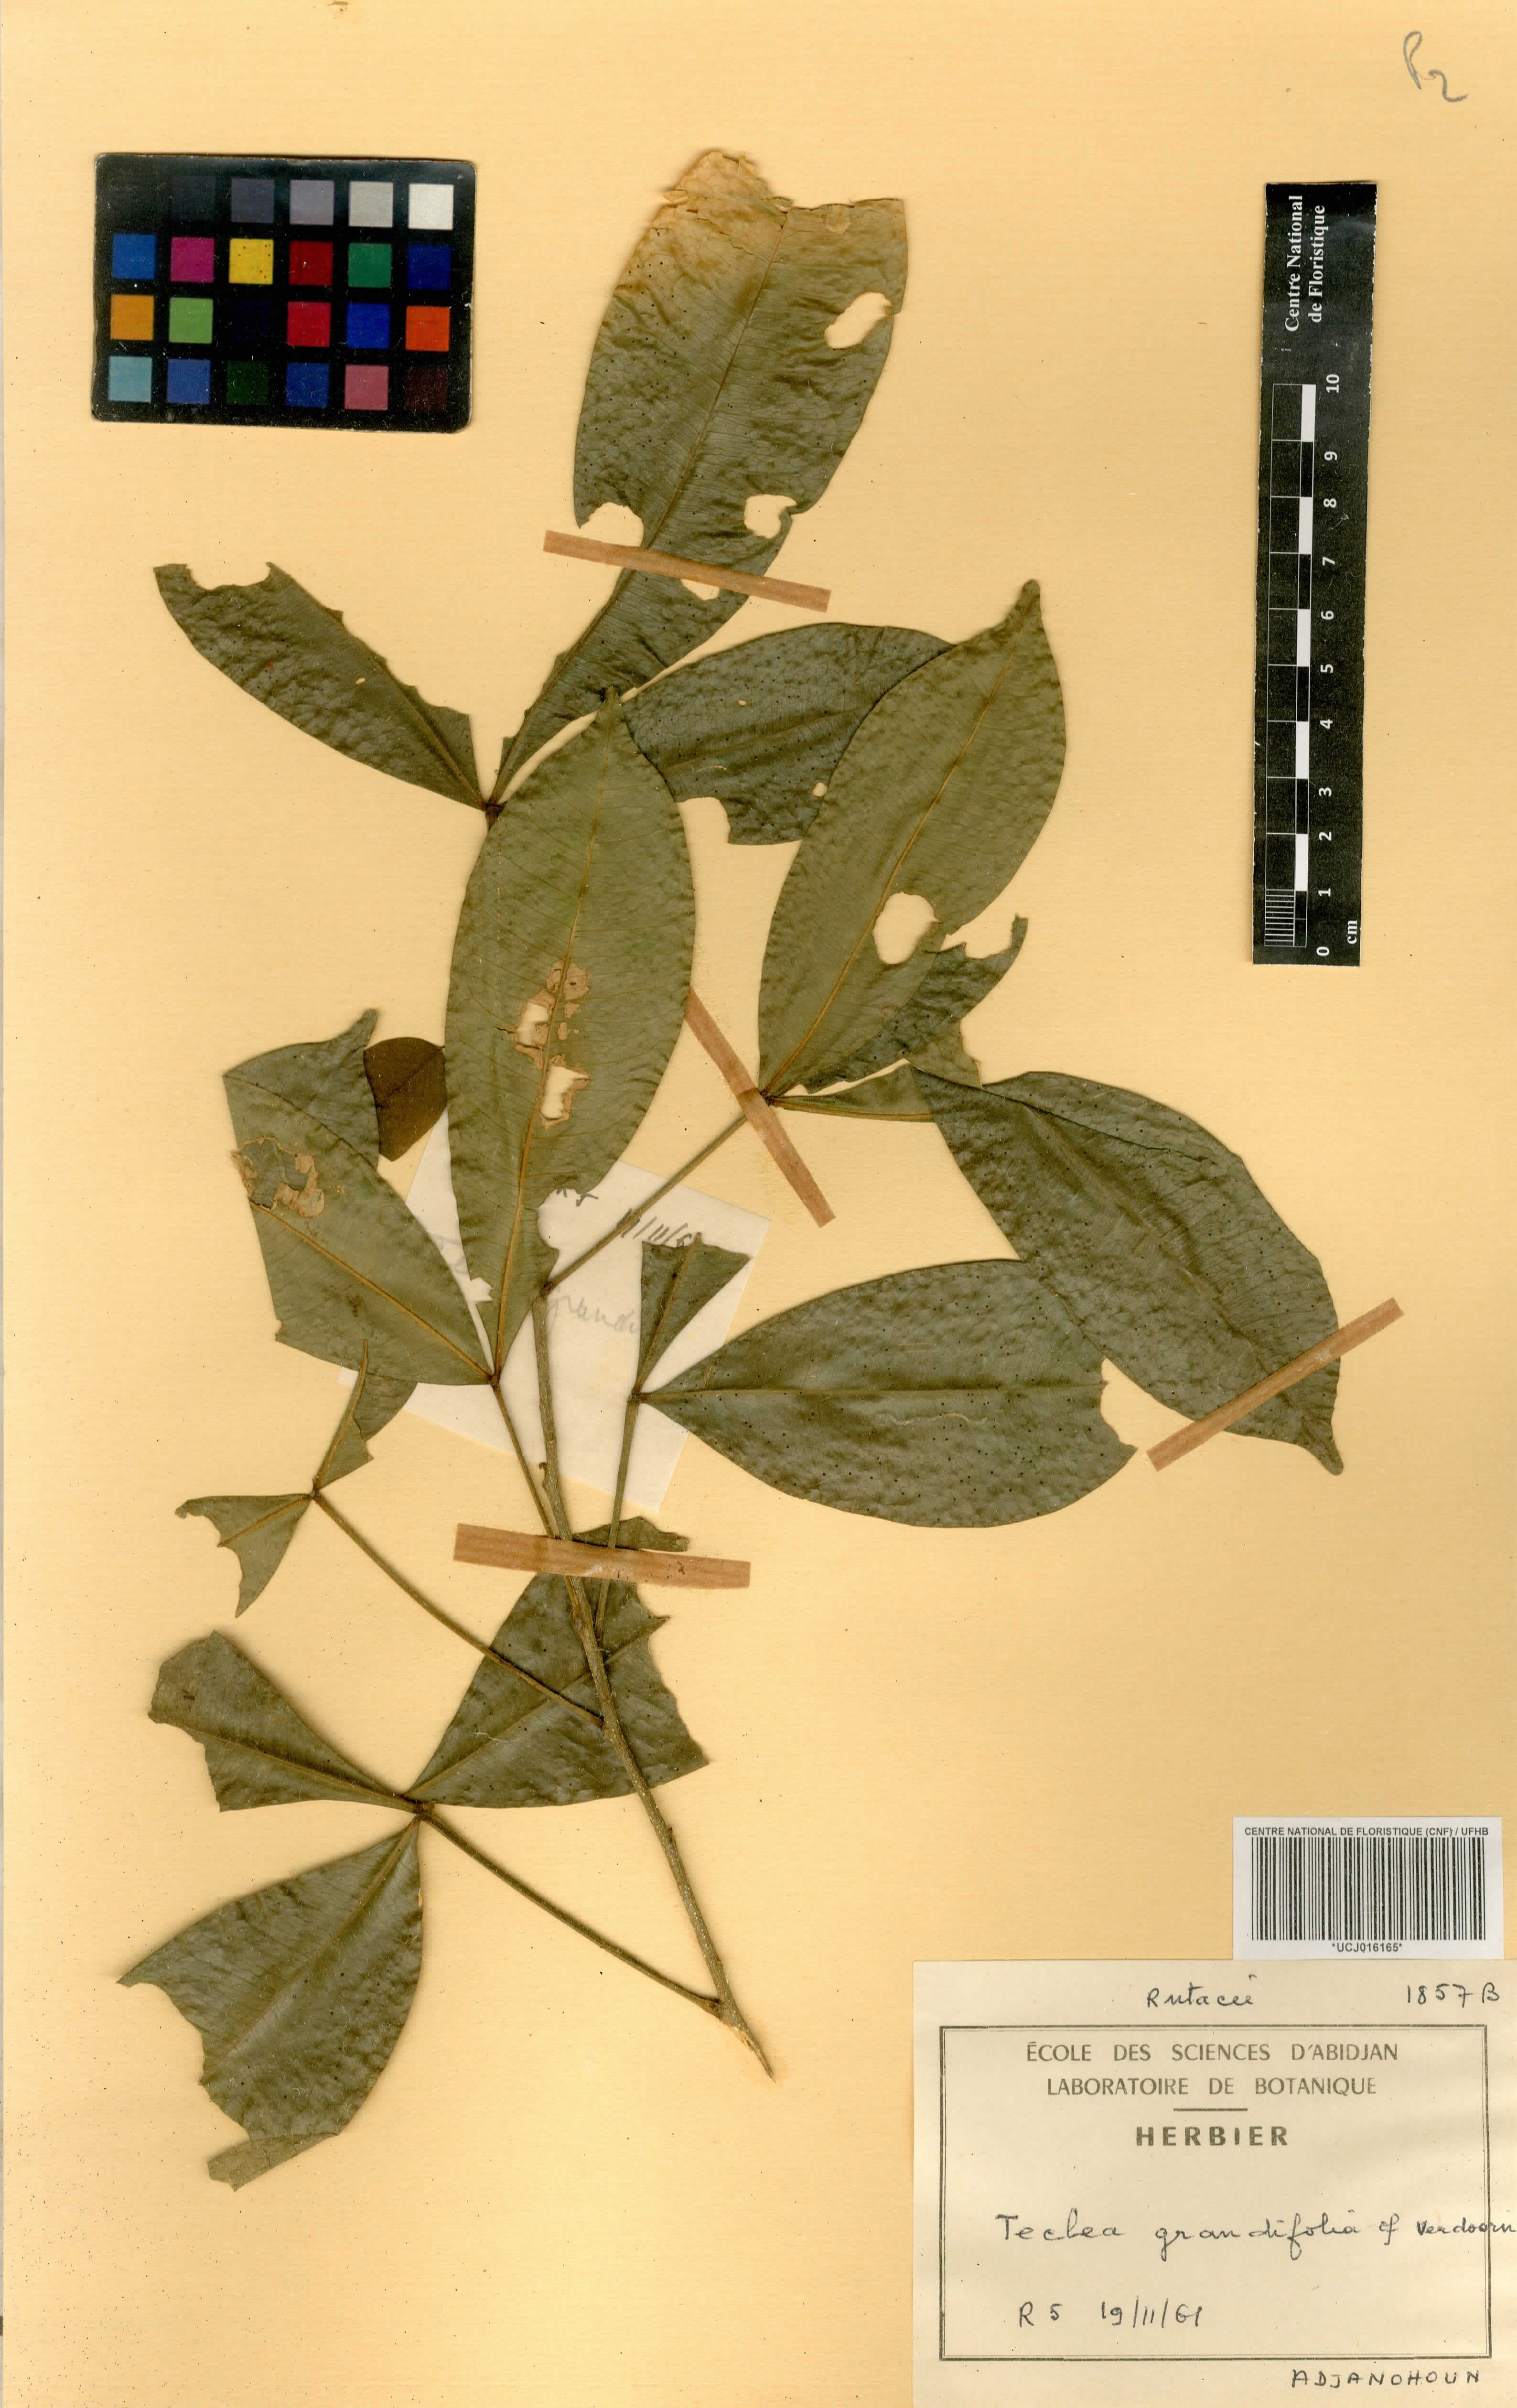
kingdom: Plantae
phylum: Tracheophyta
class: Magnoliopsida
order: Sapindales
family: Rutaceae
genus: Vepris
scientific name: Vepris grandifolia
